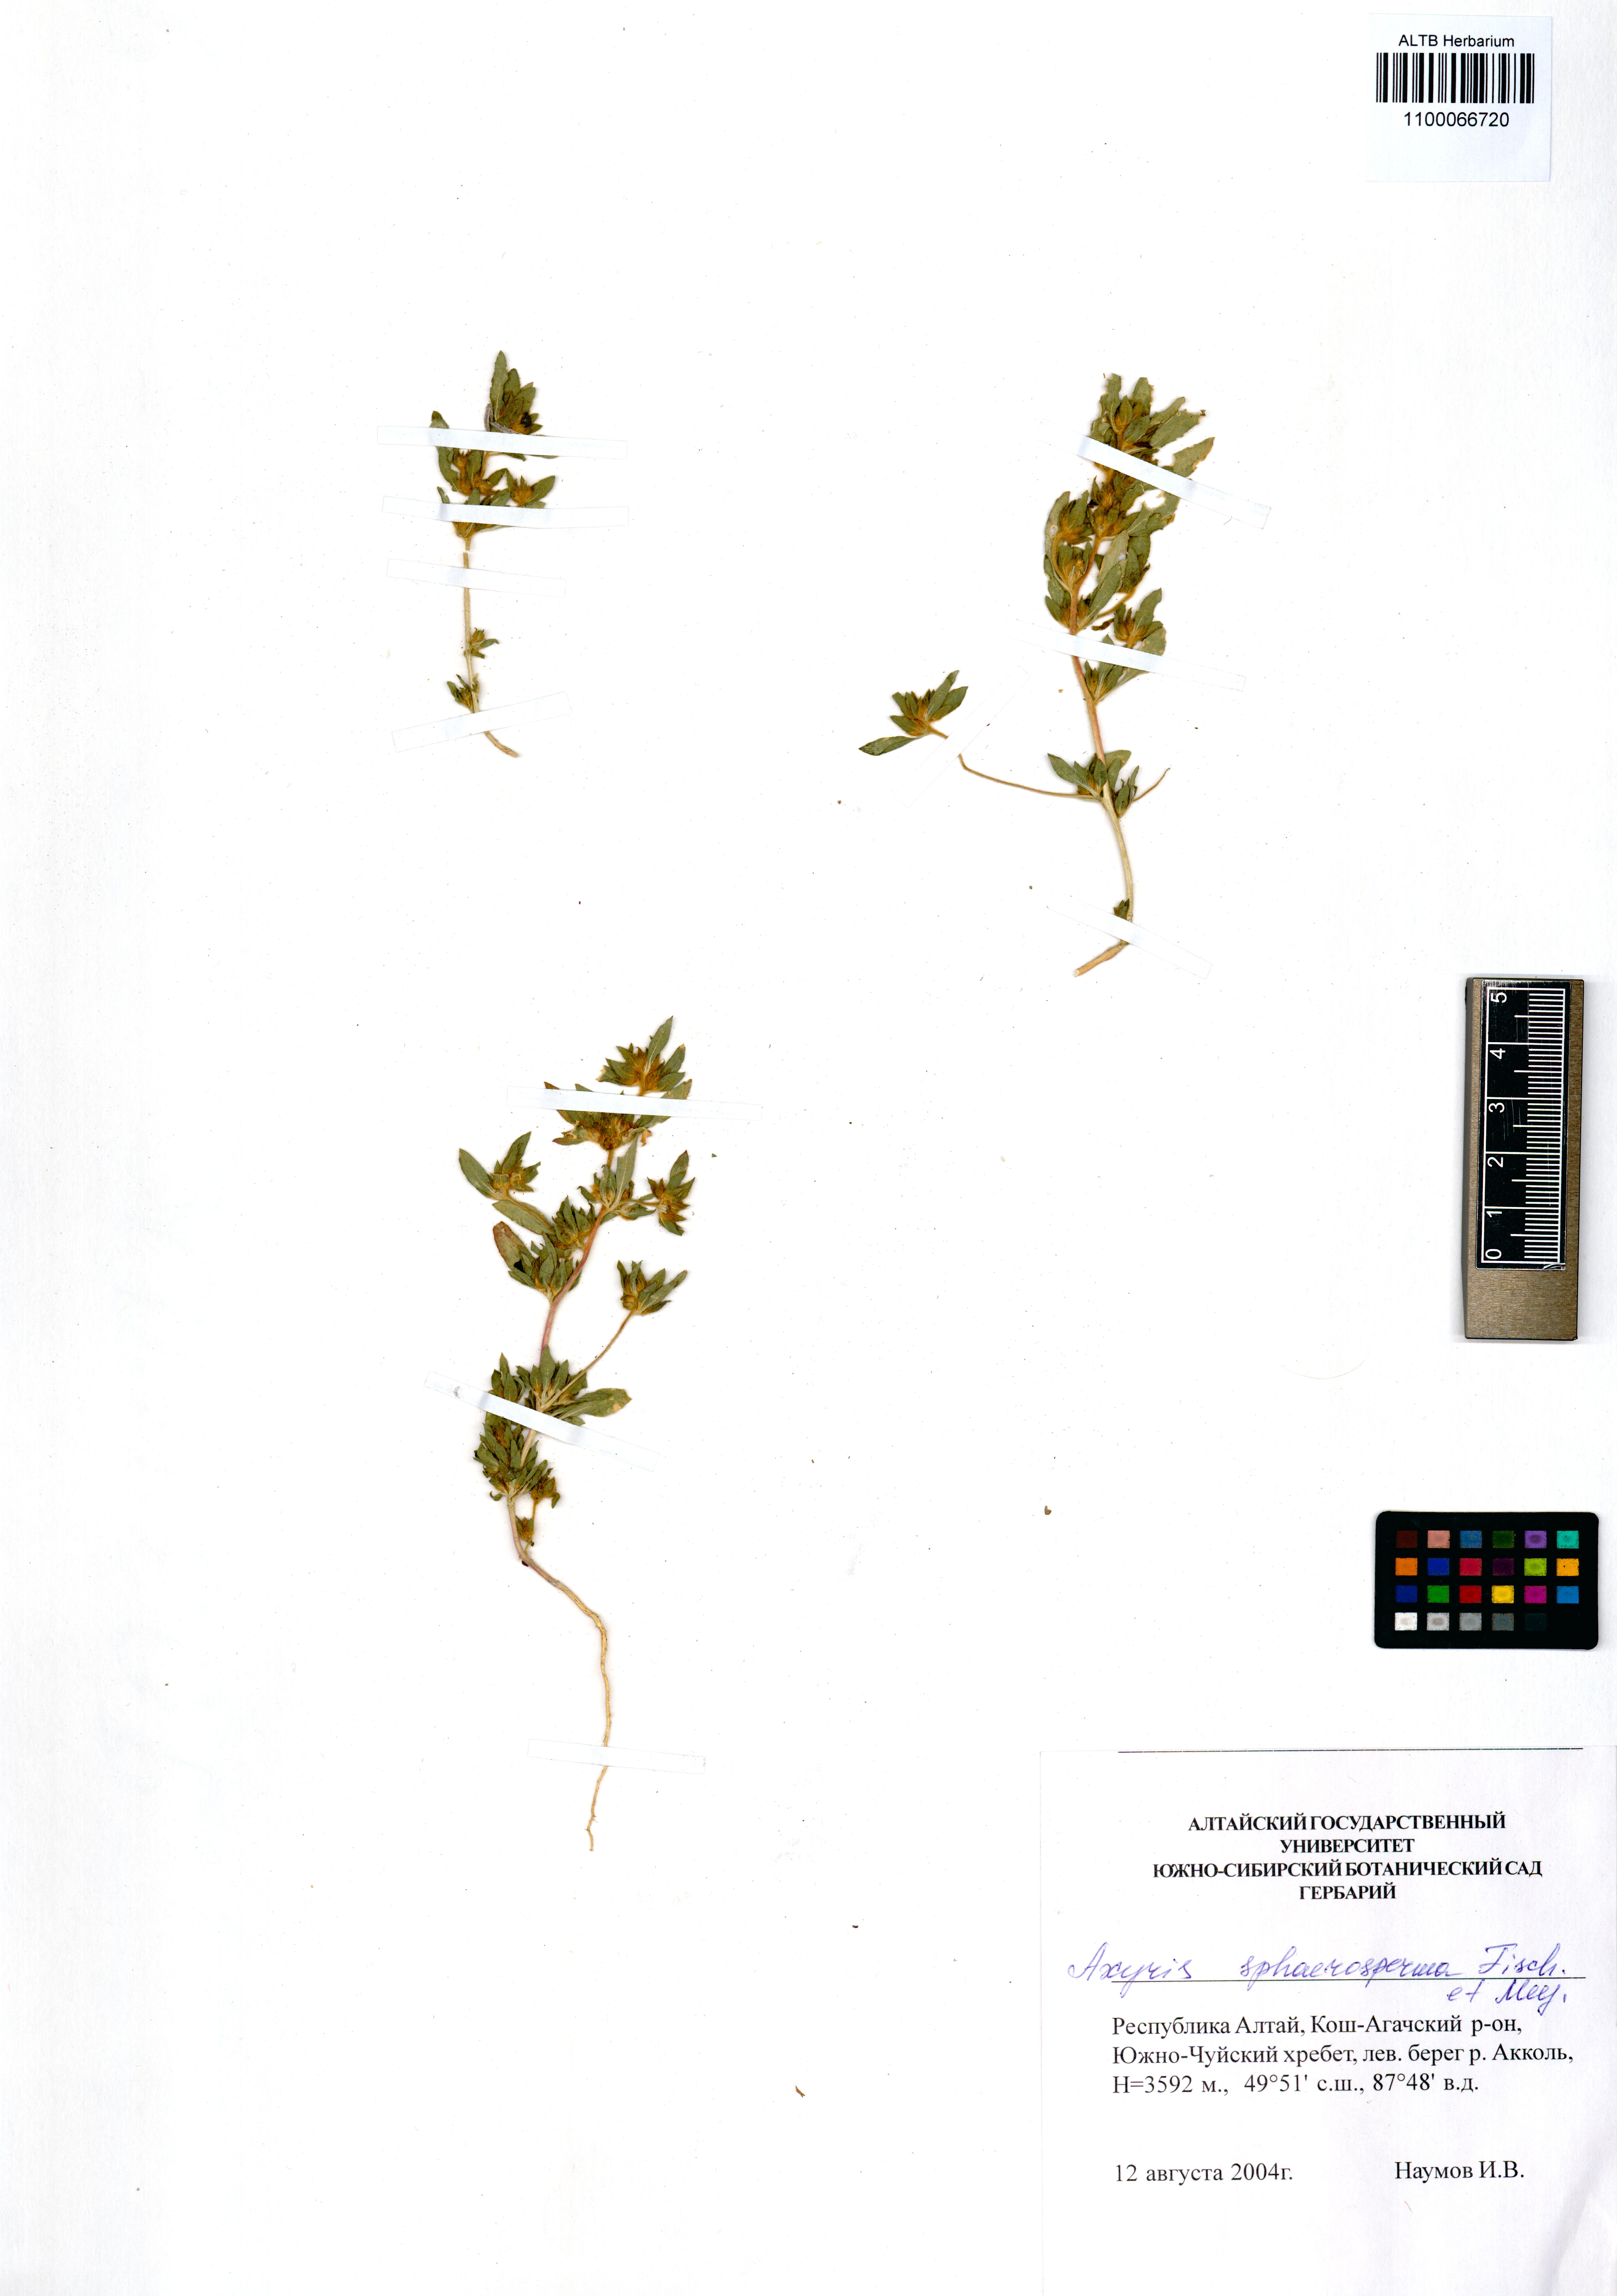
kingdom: Plantae
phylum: Tracheophyta
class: Magnoliopsida
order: Caryophyllales
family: Amaranthaceae
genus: Axyris
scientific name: Axyris sphaerosperma
